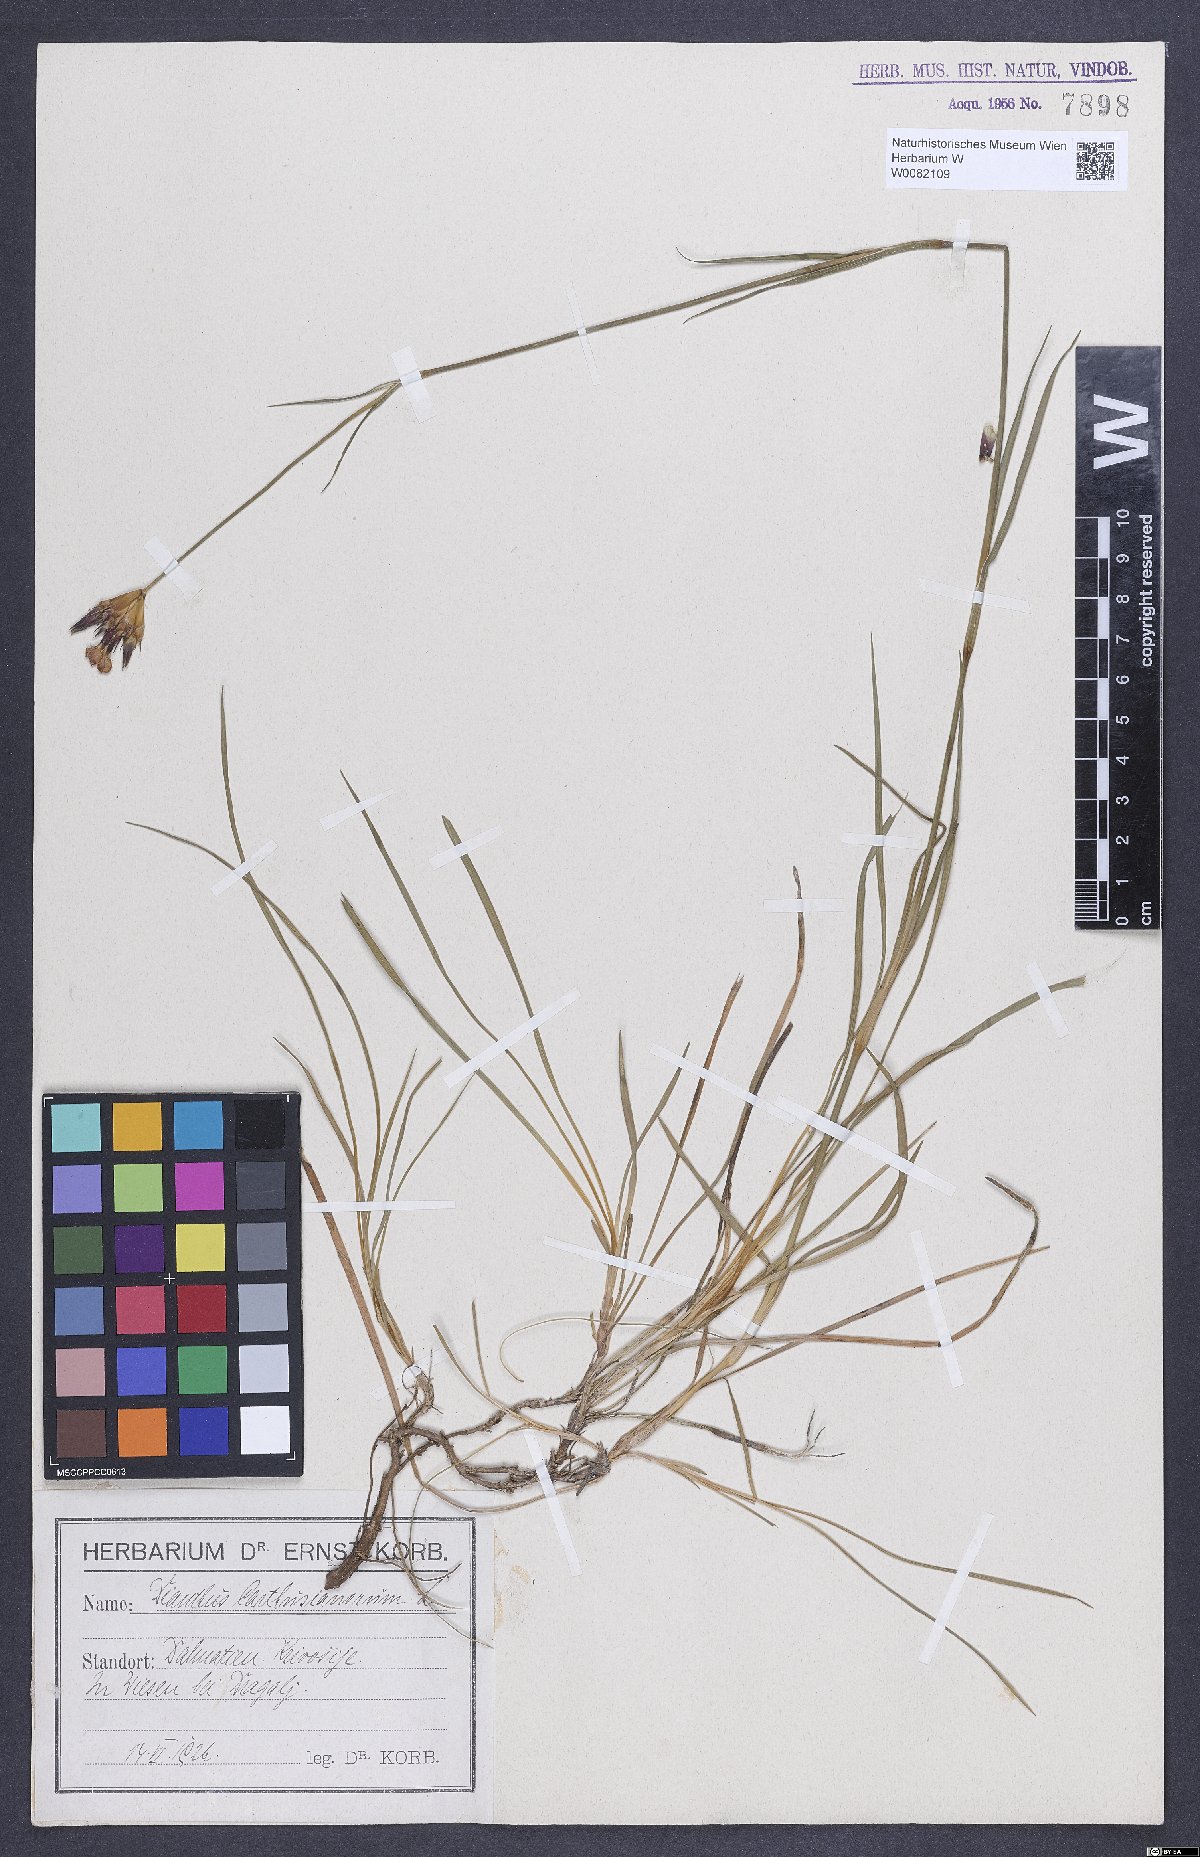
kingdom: Plantae
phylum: Tracheophyta
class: Magnoliopsida
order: Caryophyllales
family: Caryophyllaceae
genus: Dianthus
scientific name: Dianthus carthusianorum
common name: Carthusian pink
